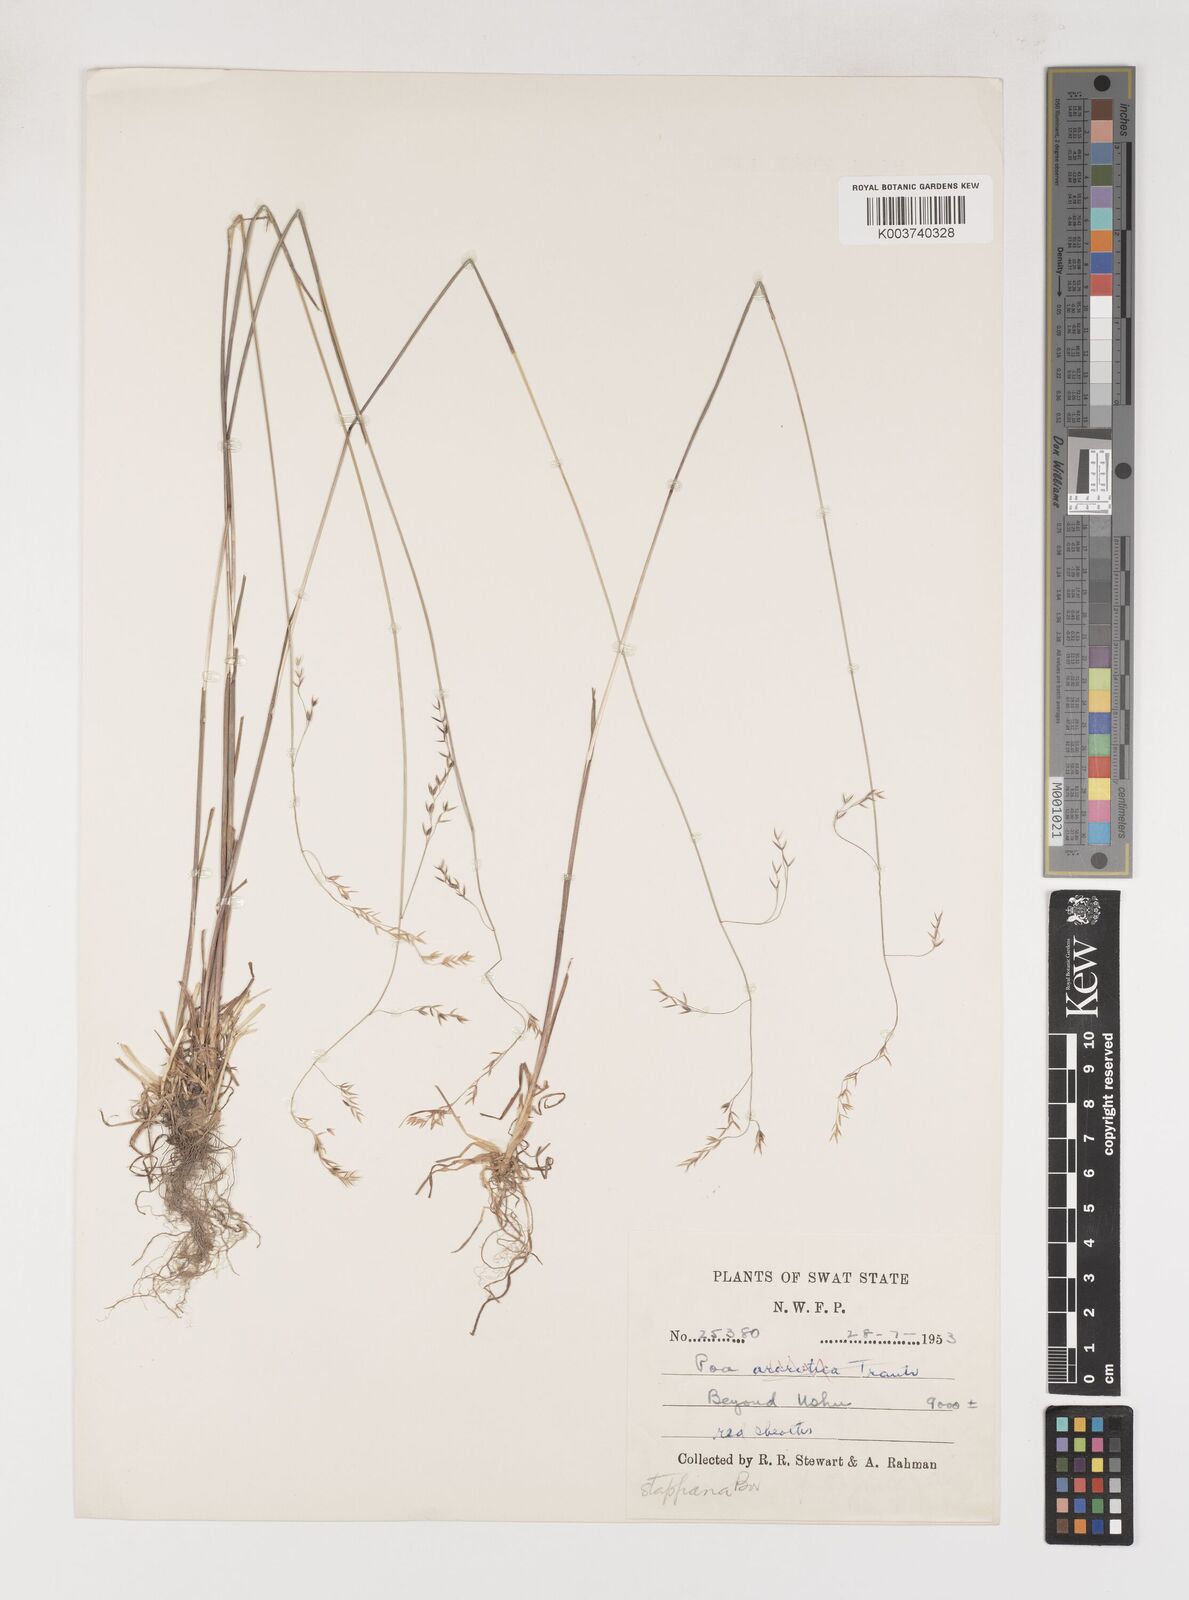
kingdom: Plantae
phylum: Tracheophyta
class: Liliopsida
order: Poales
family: Poaceae
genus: Poa
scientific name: Poa stapfiana
